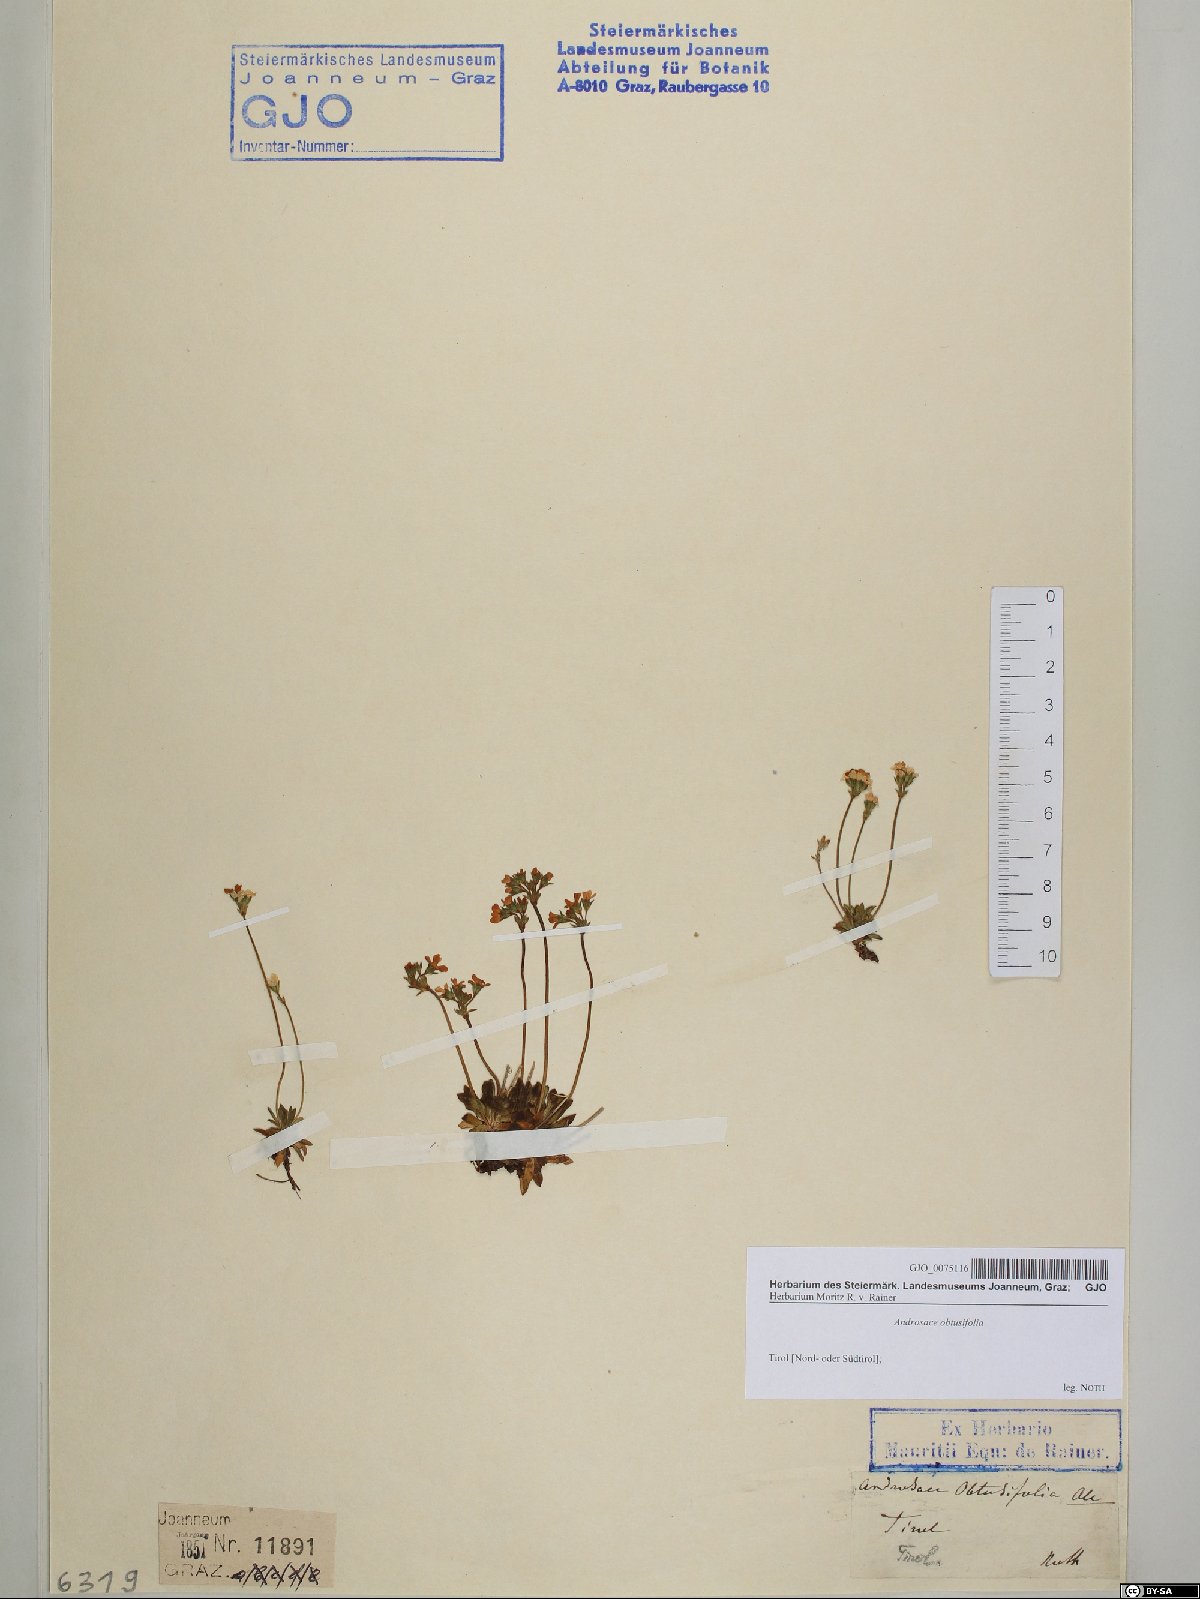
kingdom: Plantae
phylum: Tracheophyta
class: Magnoliopsida
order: Ericales
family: Primulaceae
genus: Androsace
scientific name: Androsace obtusifolia
